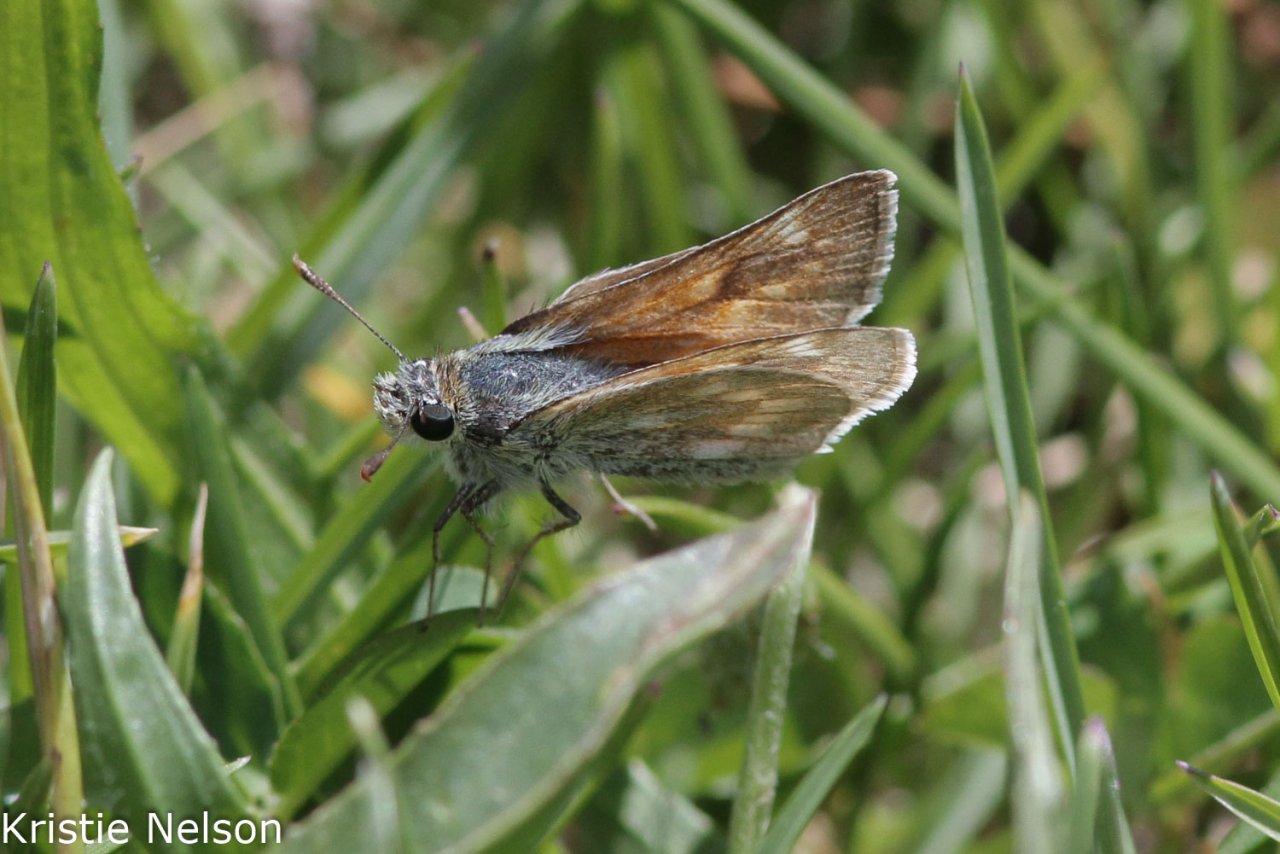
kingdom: Animalia
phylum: Arthropoda
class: Insecta
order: Lepidoptera
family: Hesperiidae
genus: Atalopedes
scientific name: Atalopedes campestris
